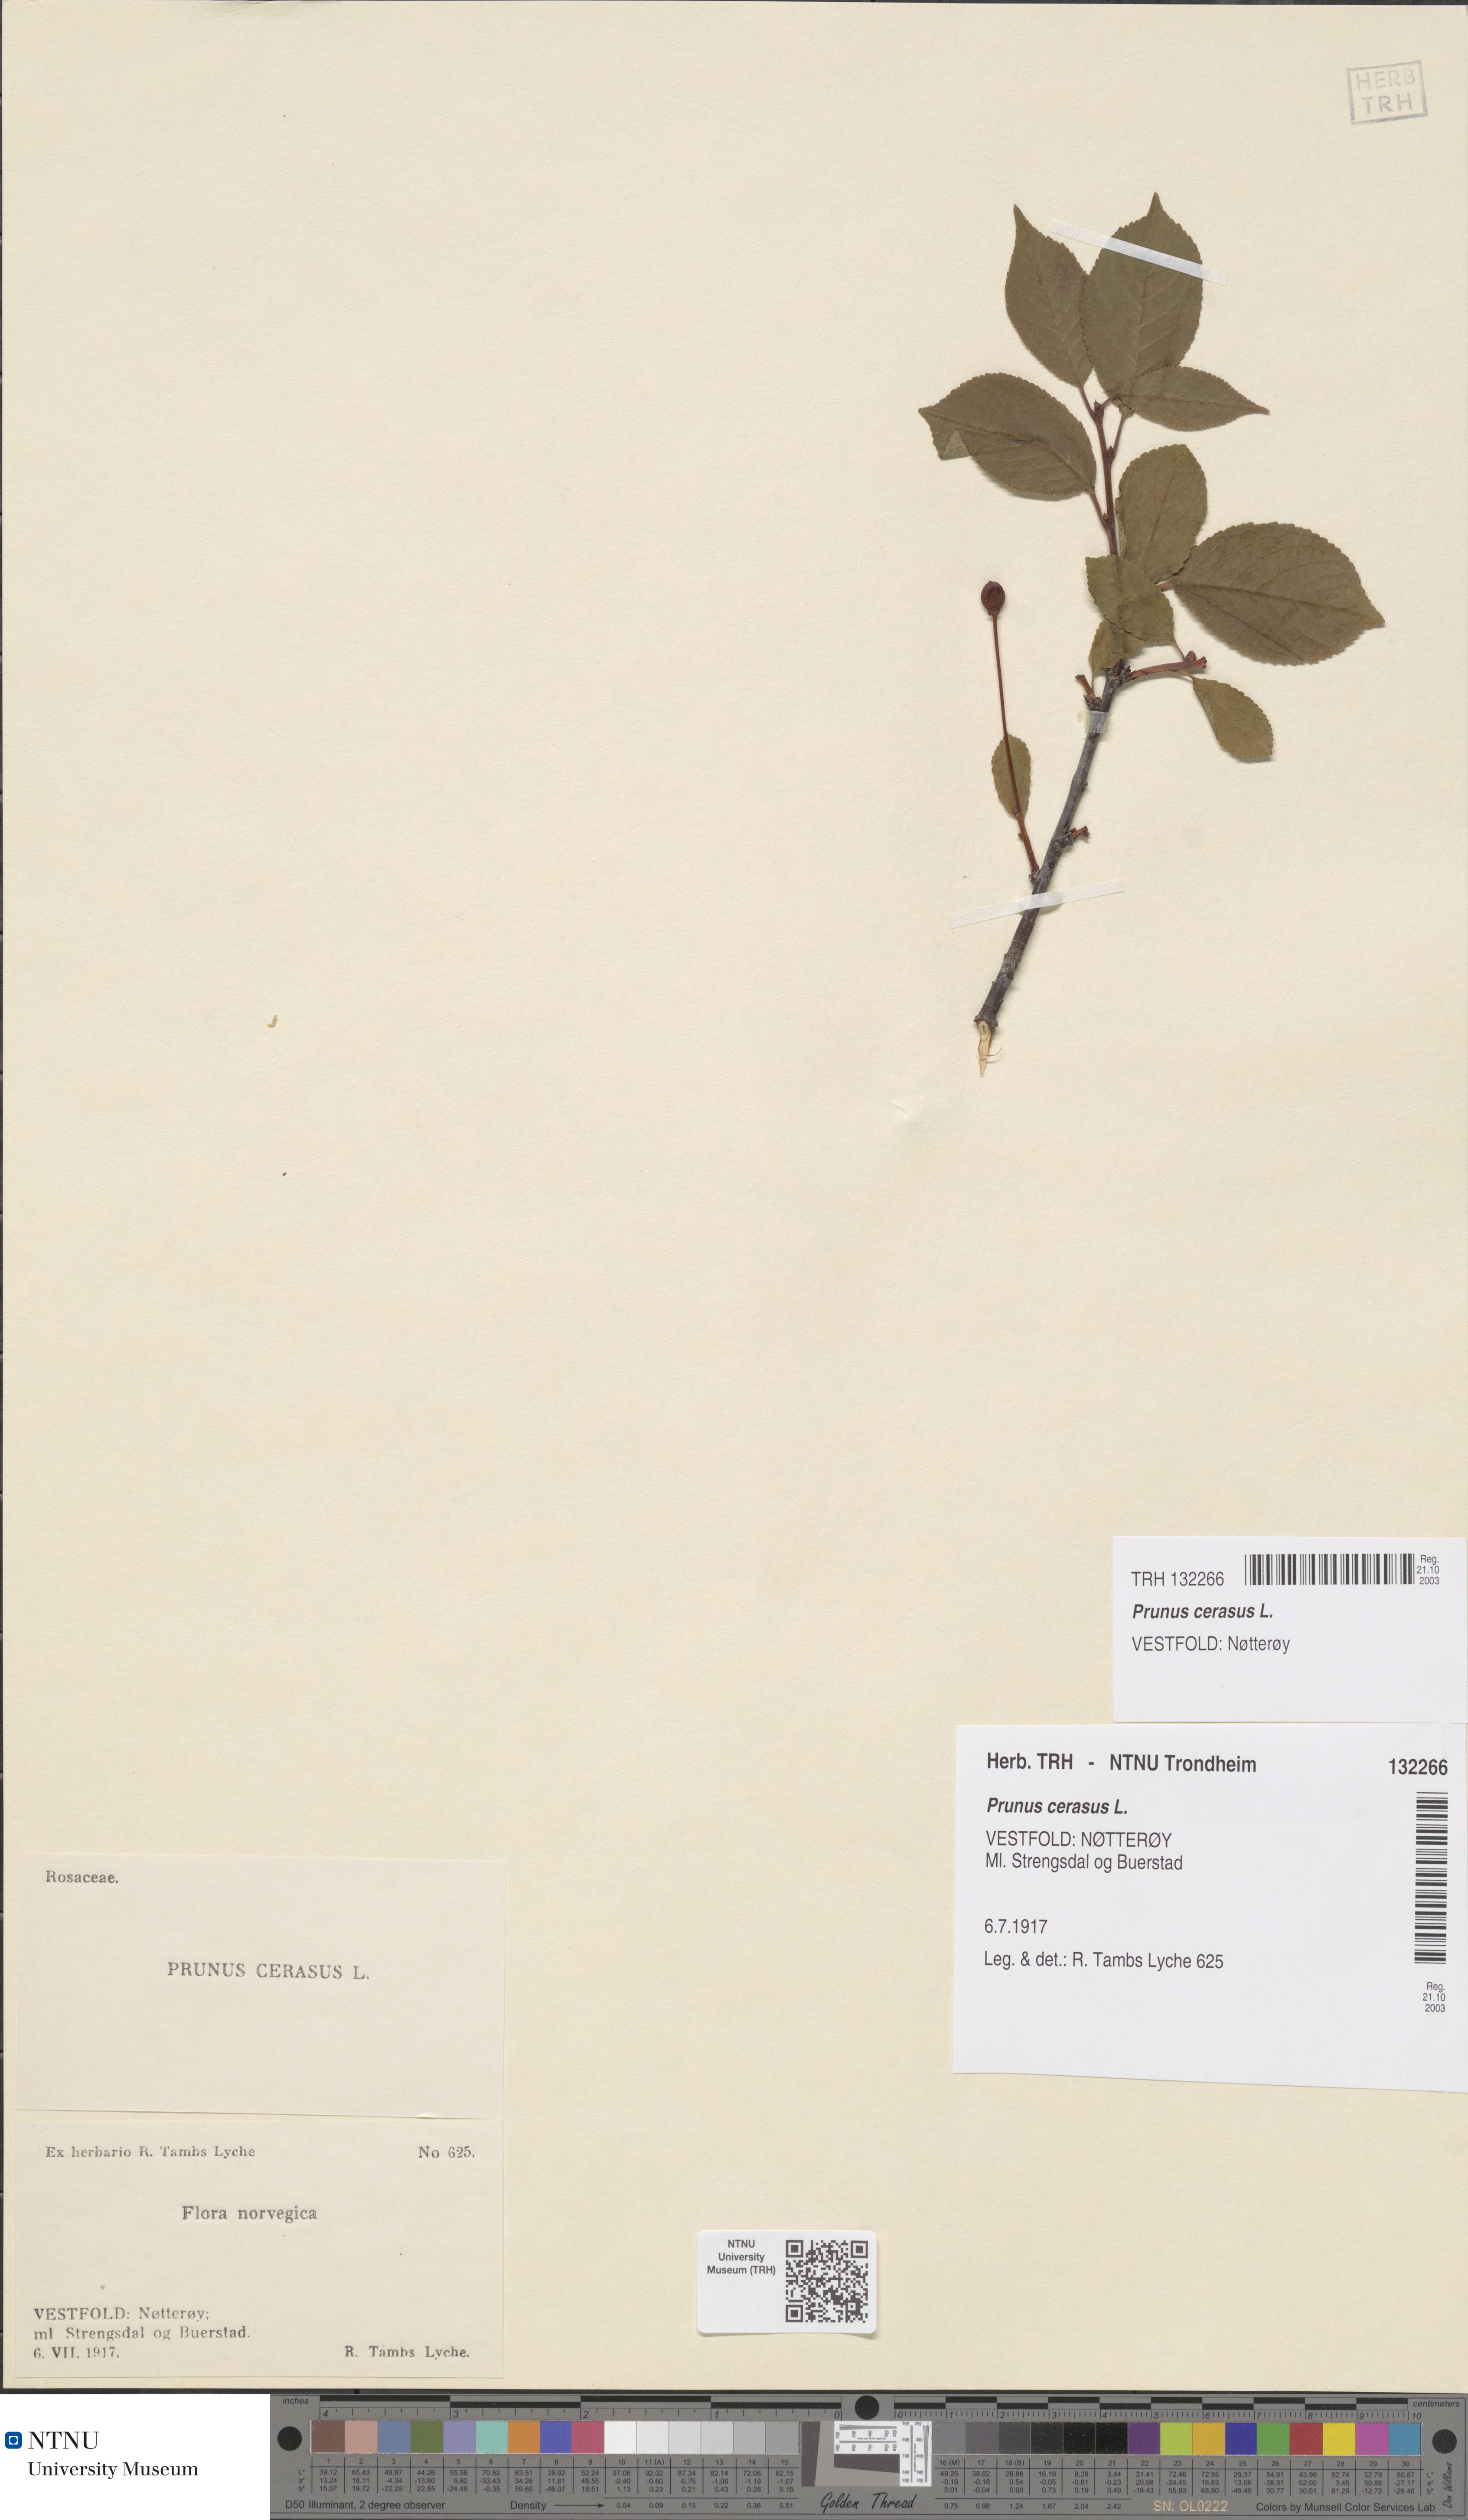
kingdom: Plantae
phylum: Tracheophyta
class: Magnoliopsida
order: Rosales
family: Rosaceae
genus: Prunus
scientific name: Prunus cerasus
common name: Morello cherry
